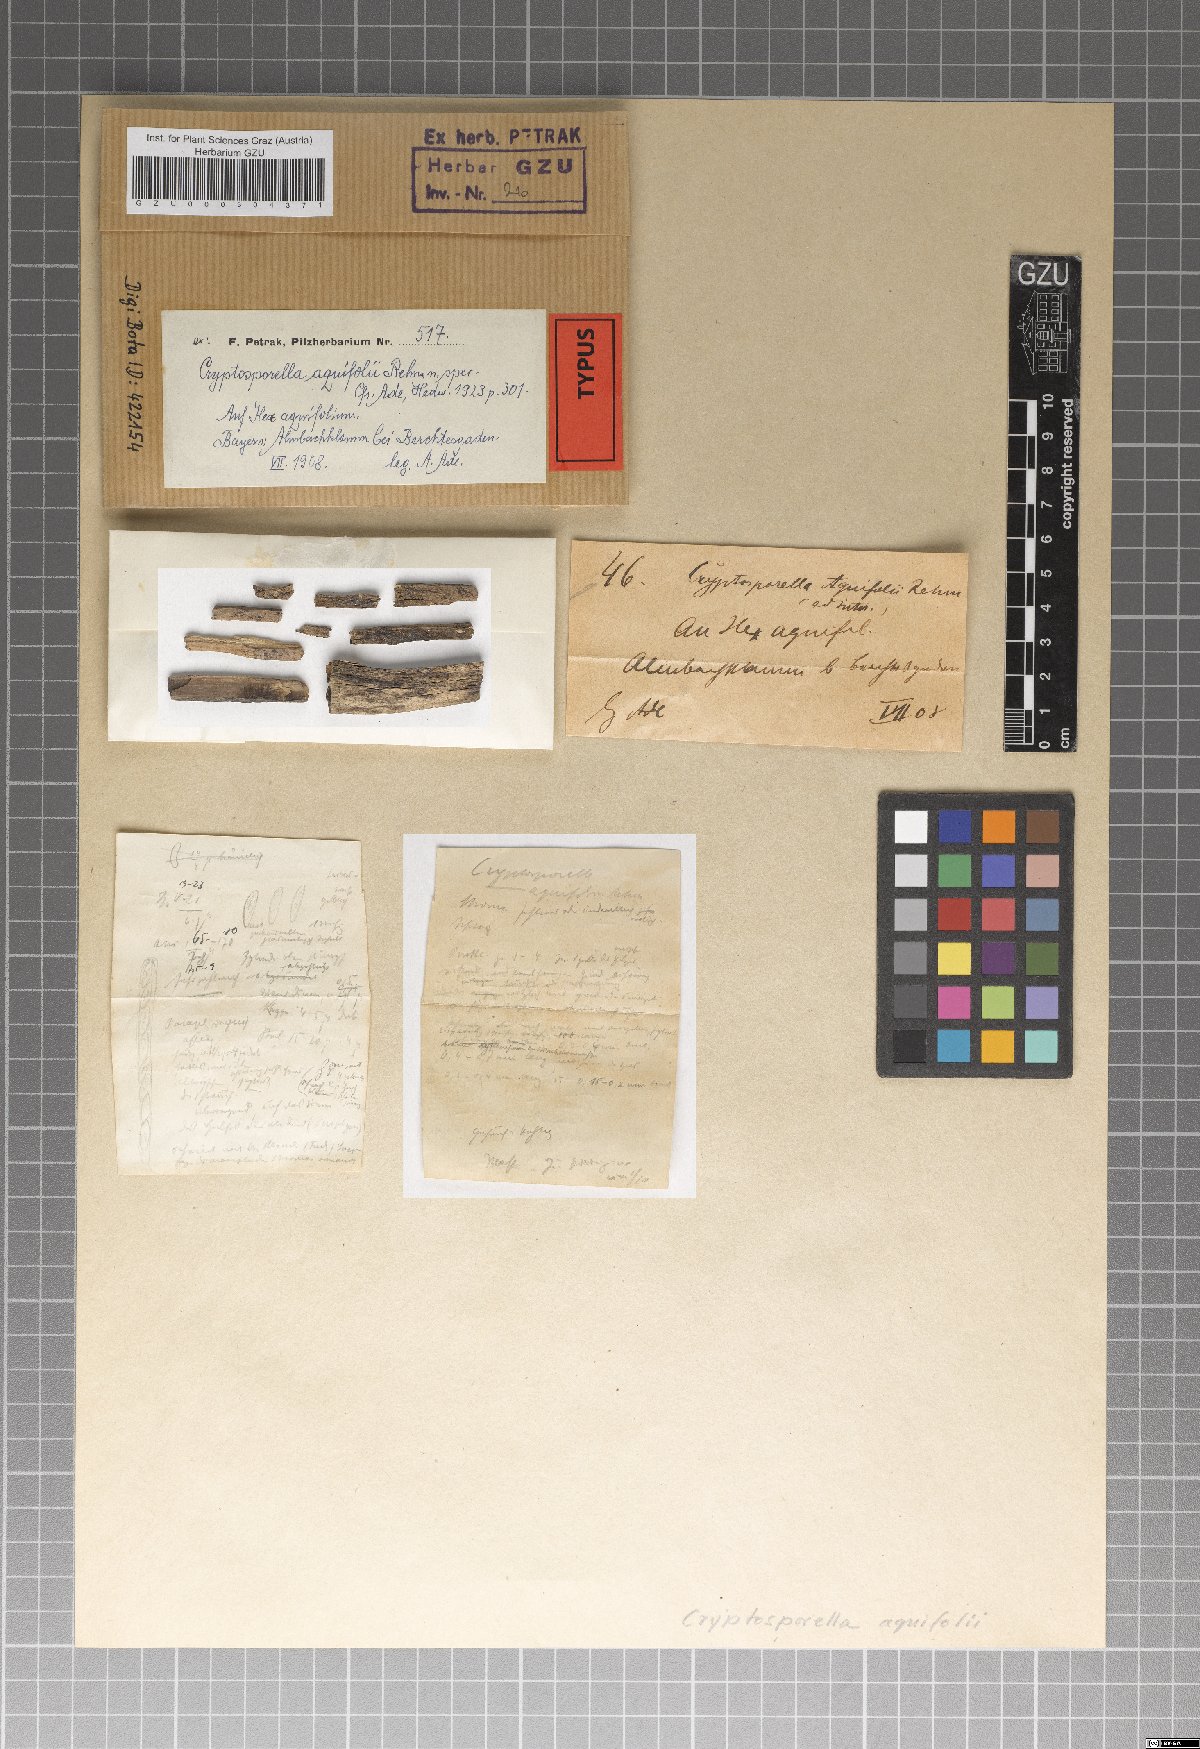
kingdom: Fungi
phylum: Ascomycota
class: Sordariomycetes
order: Diaporthales
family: Gnomoniaceae
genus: Cryptosporella
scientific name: Cryptosporella aquifolii
